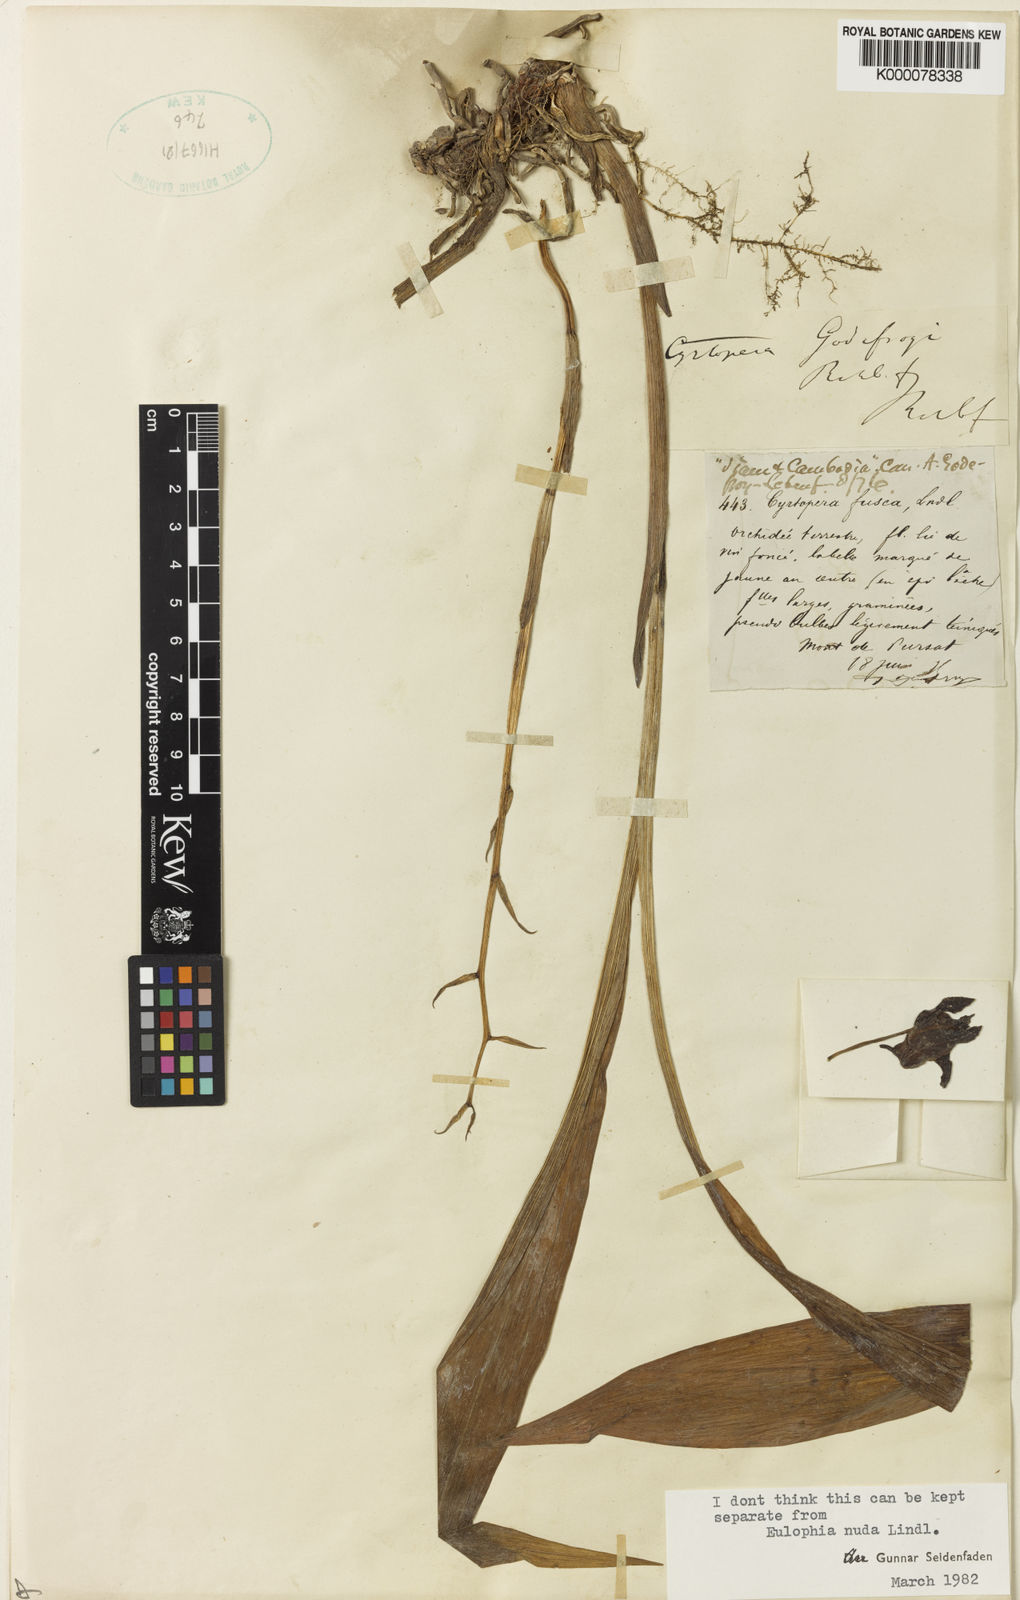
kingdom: Plantae
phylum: Tracheophyta
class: Liliopsida
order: Asparagales
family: Orchidaceae
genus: Eulophia
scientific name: Eulophia nuda
